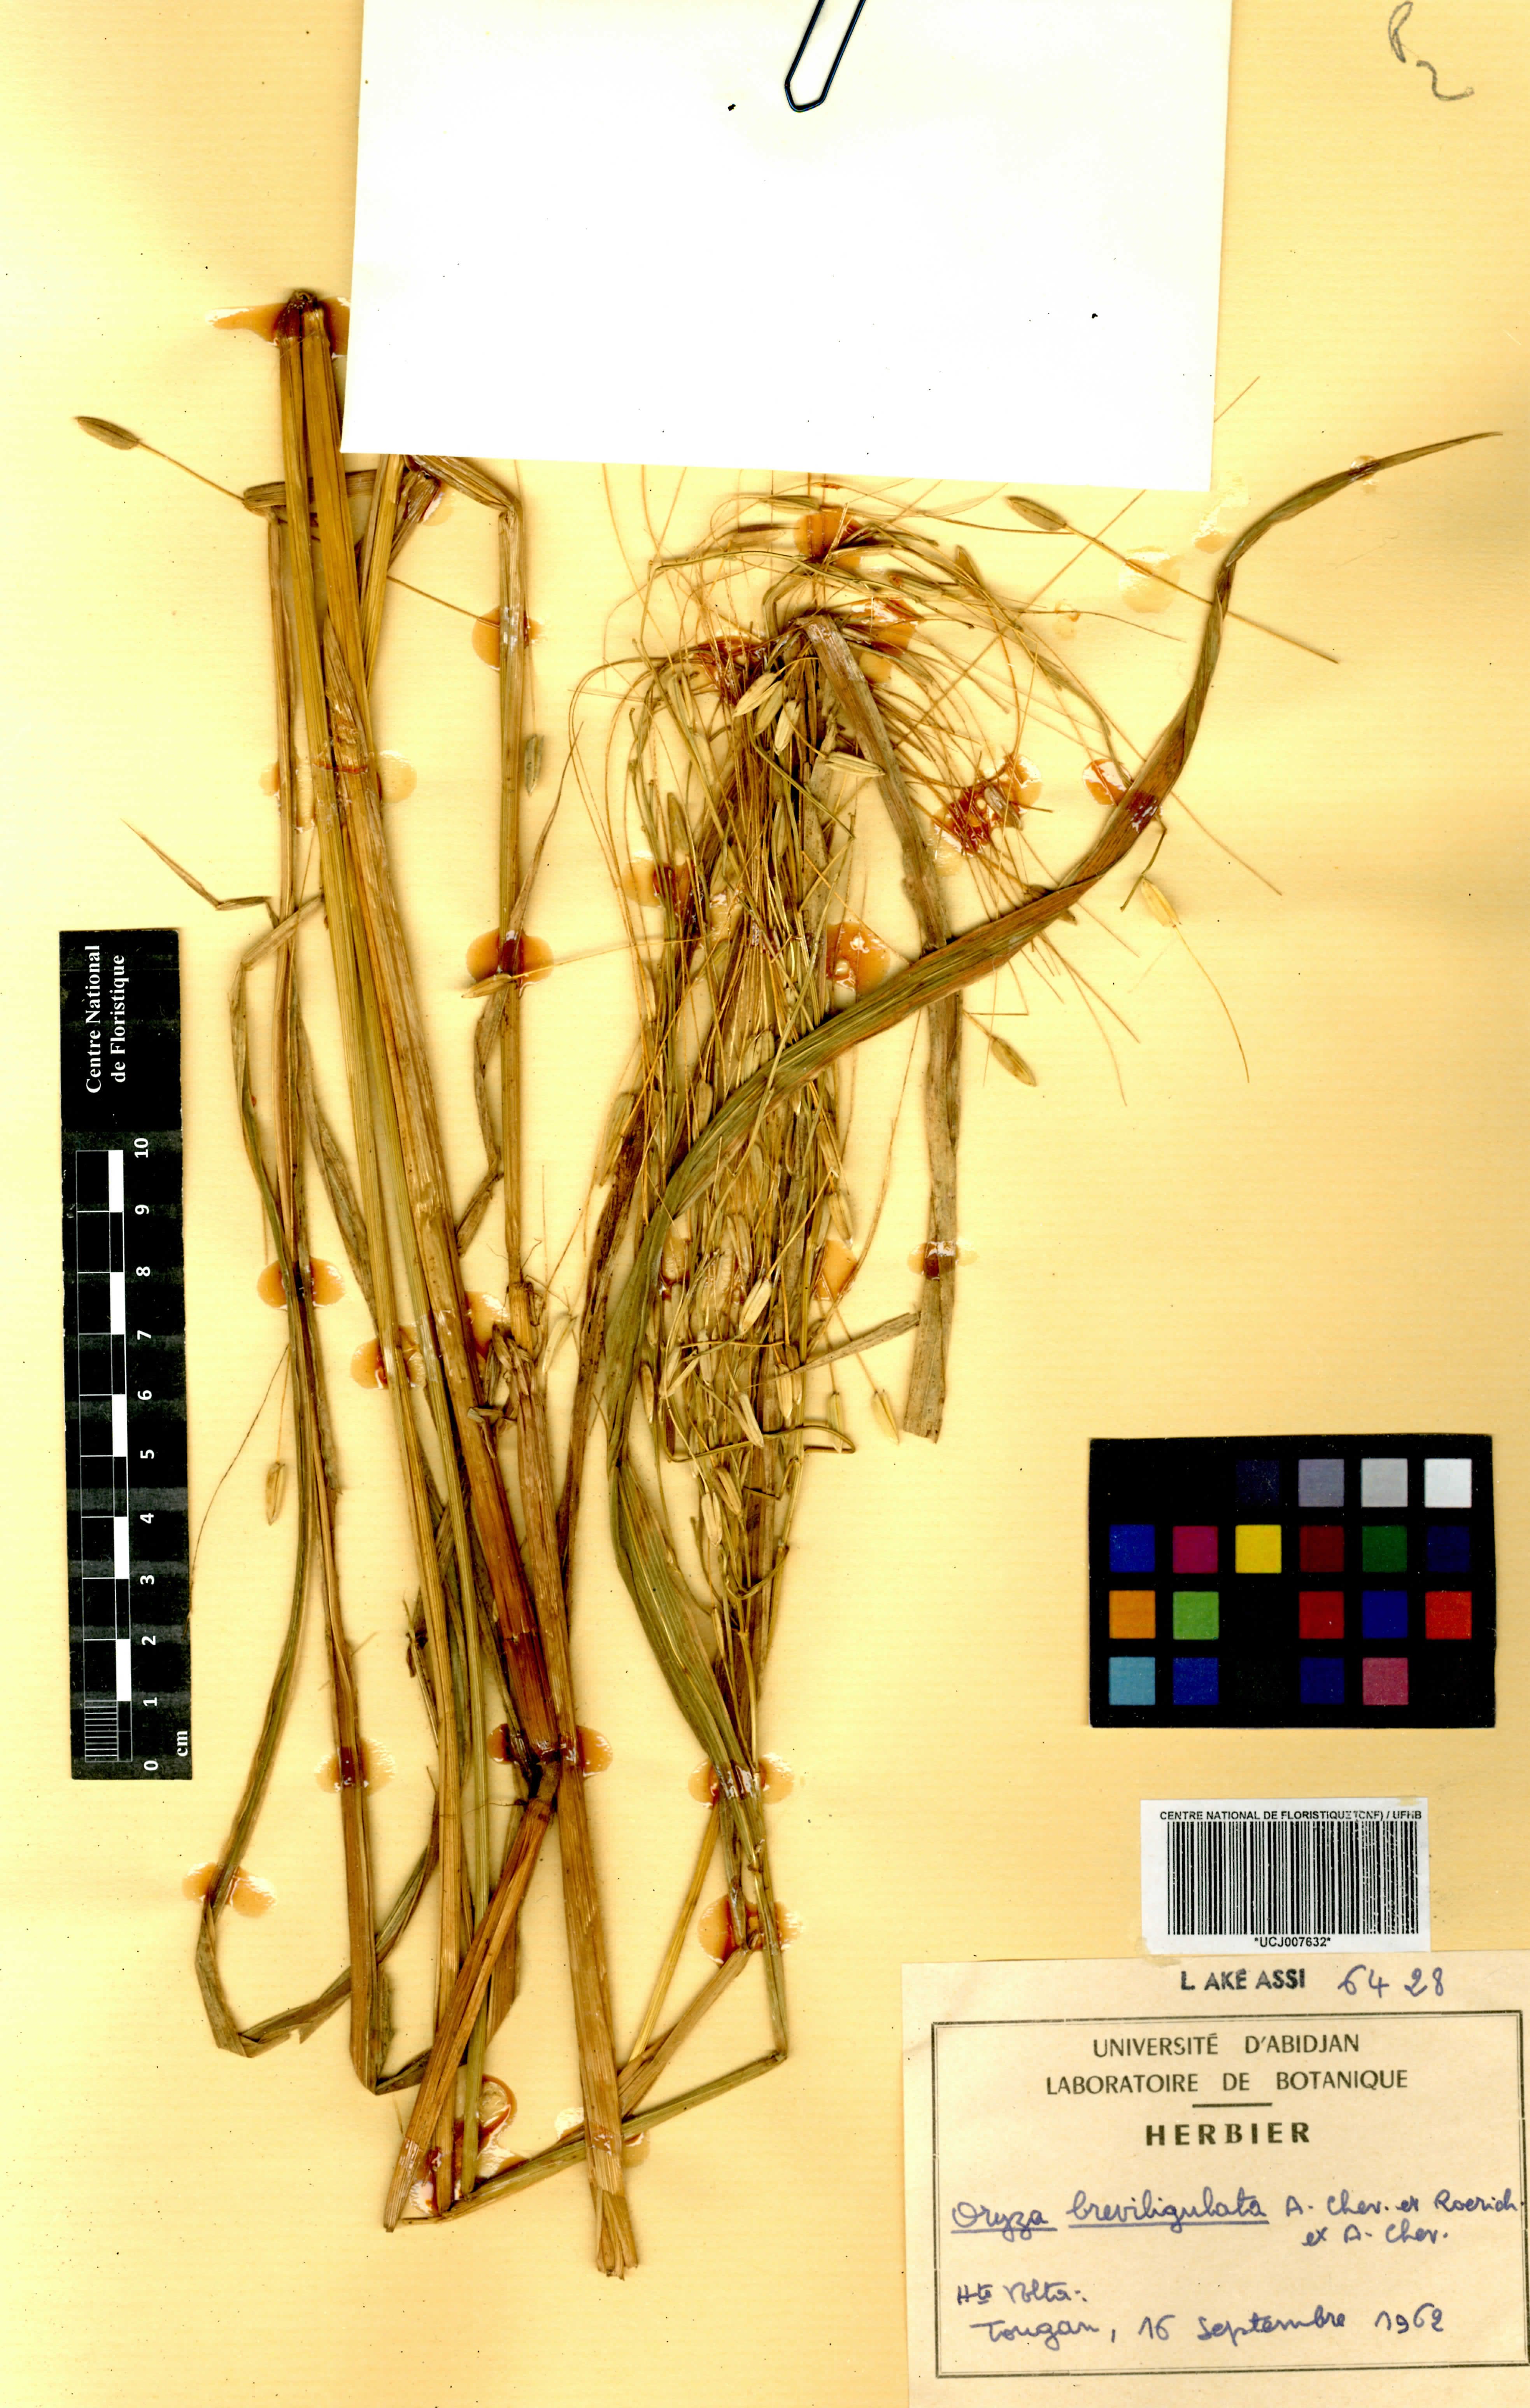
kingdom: Plantae
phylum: Tracheophyta
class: Liliopsida
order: Poales
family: Poaceae
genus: Oryza
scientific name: Oryza barthii
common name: Wild rice
